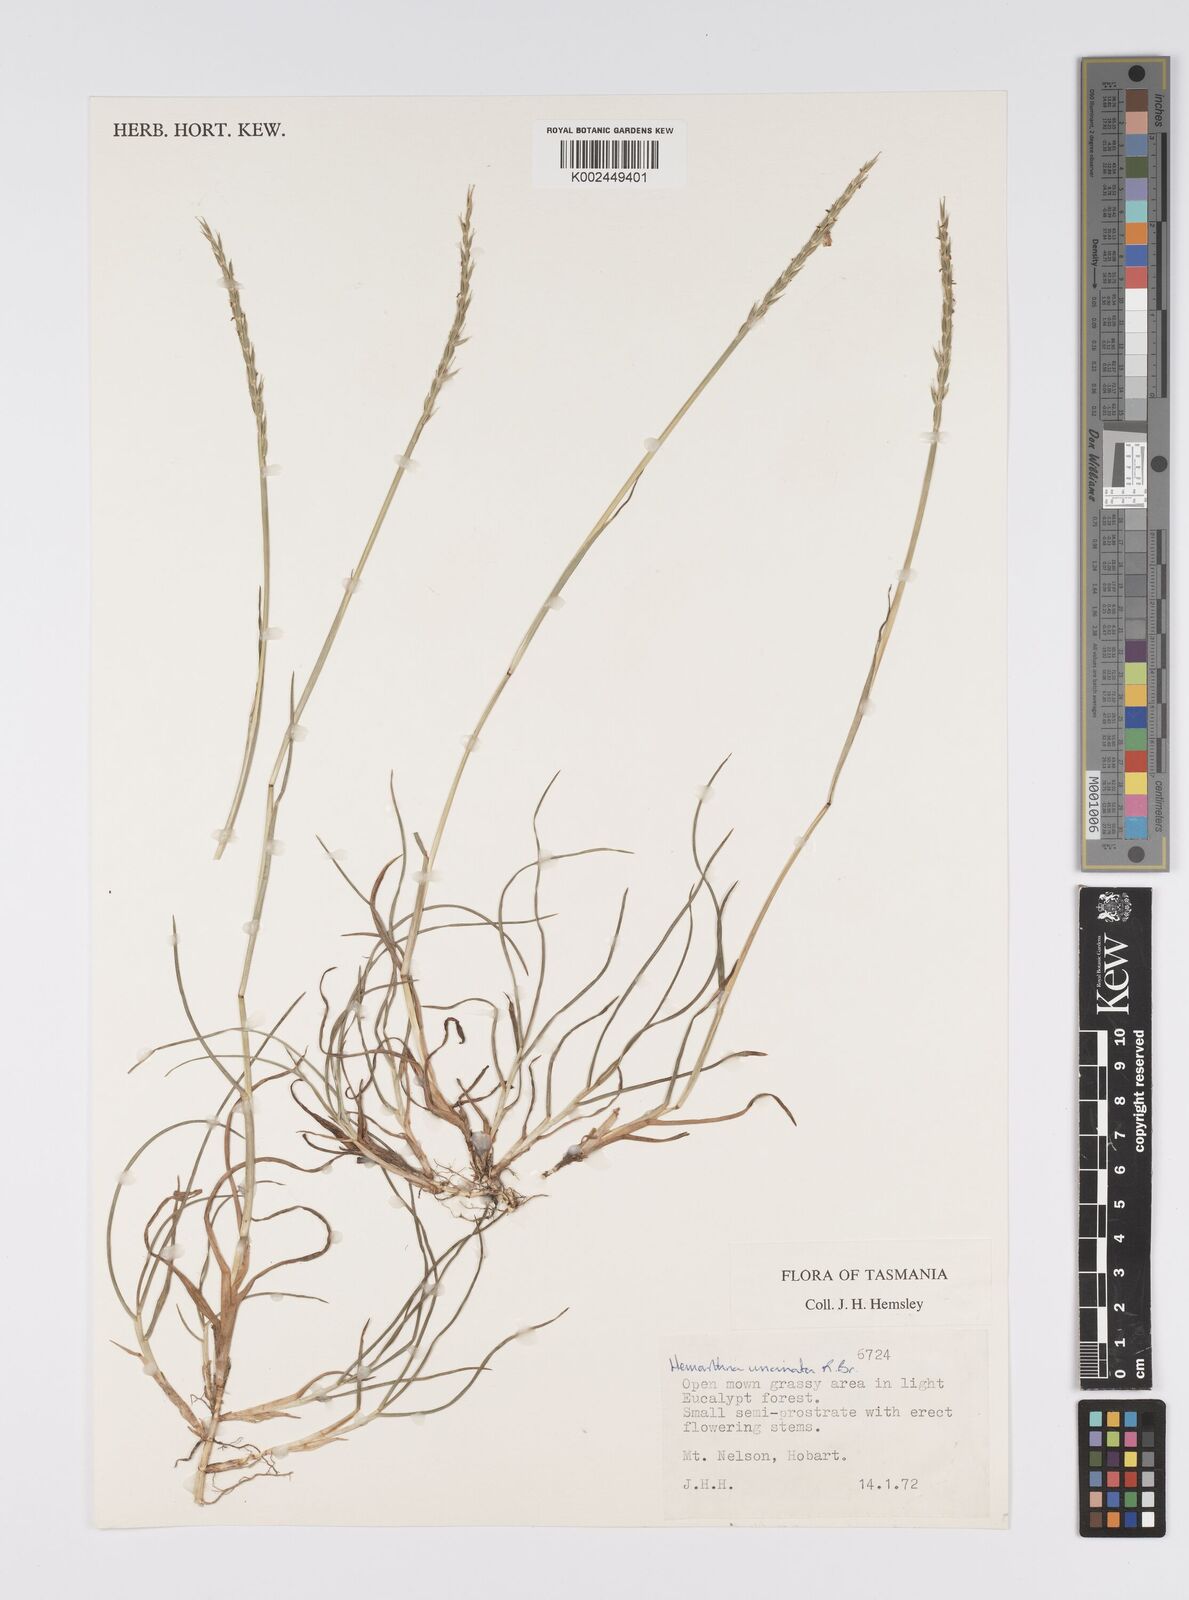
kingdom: Plantae
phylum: Tracheophyta
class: Liliopsida
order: Poales
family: Poaceae
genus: Hemarthria
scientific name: Hemarthria uncinata
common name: Matgrass
